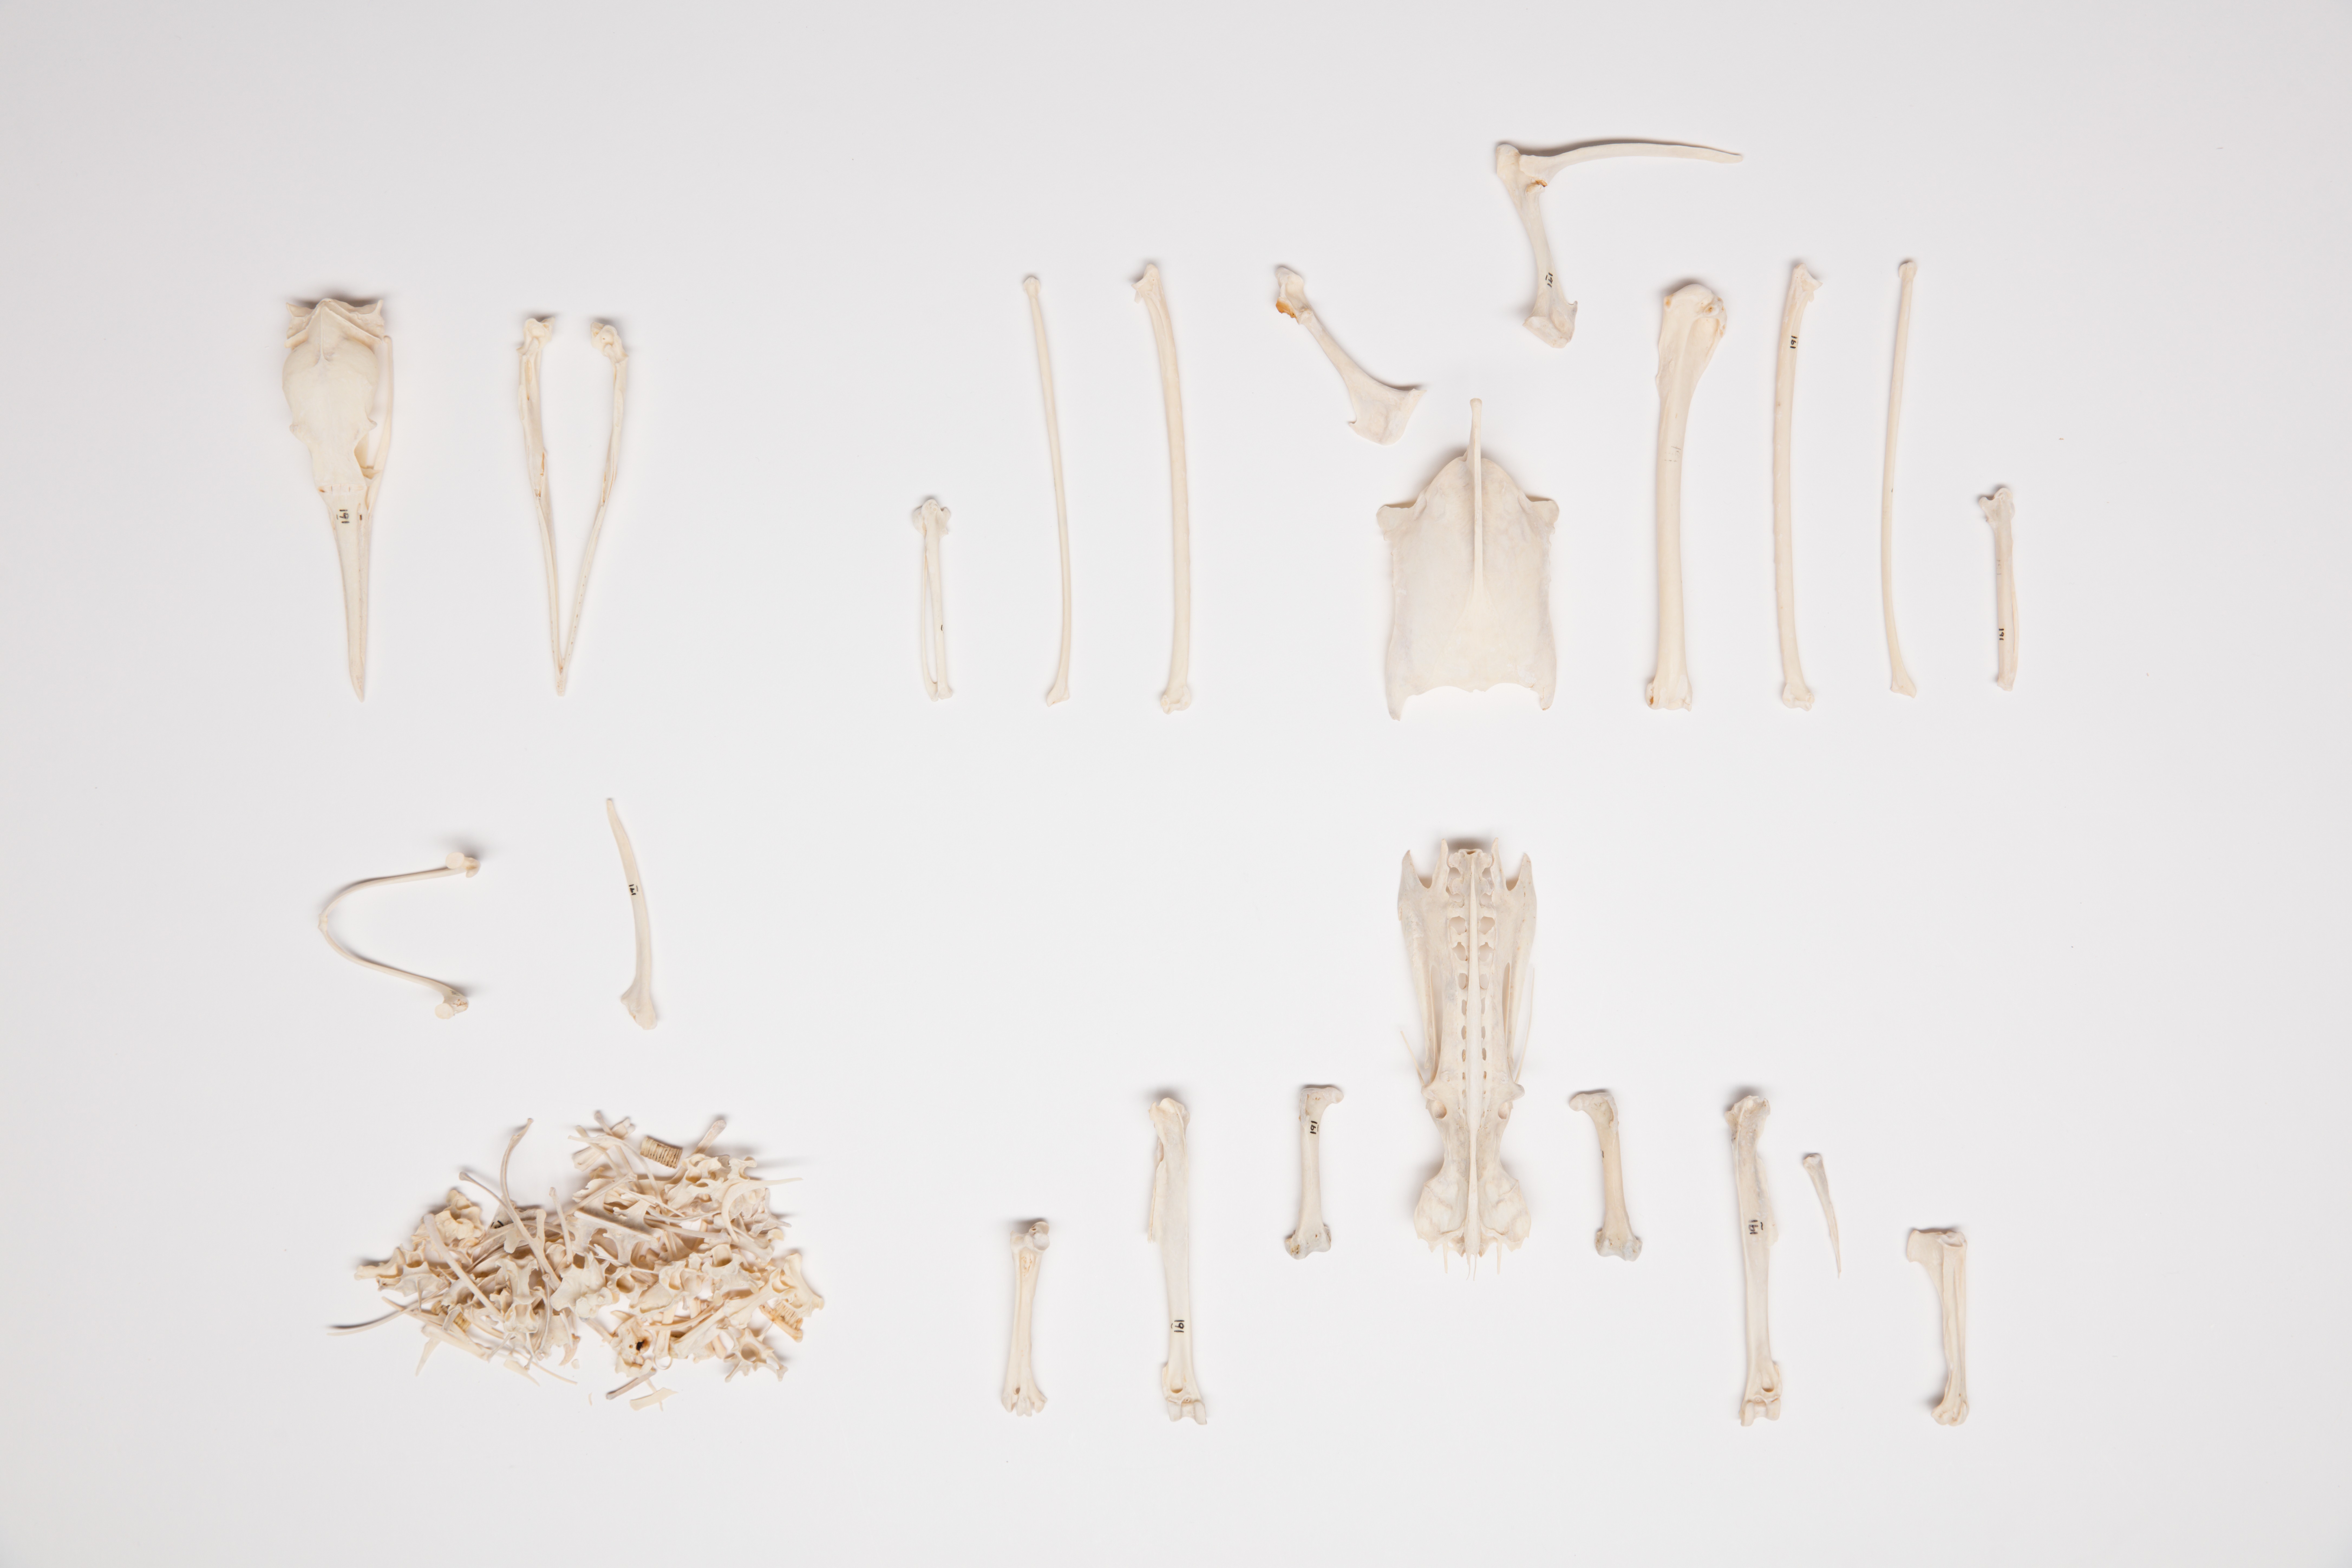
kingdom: Animalia
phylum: Chordata
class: Aves
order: Suliformes
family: Phalacrocoracidae
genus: Phalacrocorax
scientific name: Phalacrocorax varius
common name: Pied cormorant
